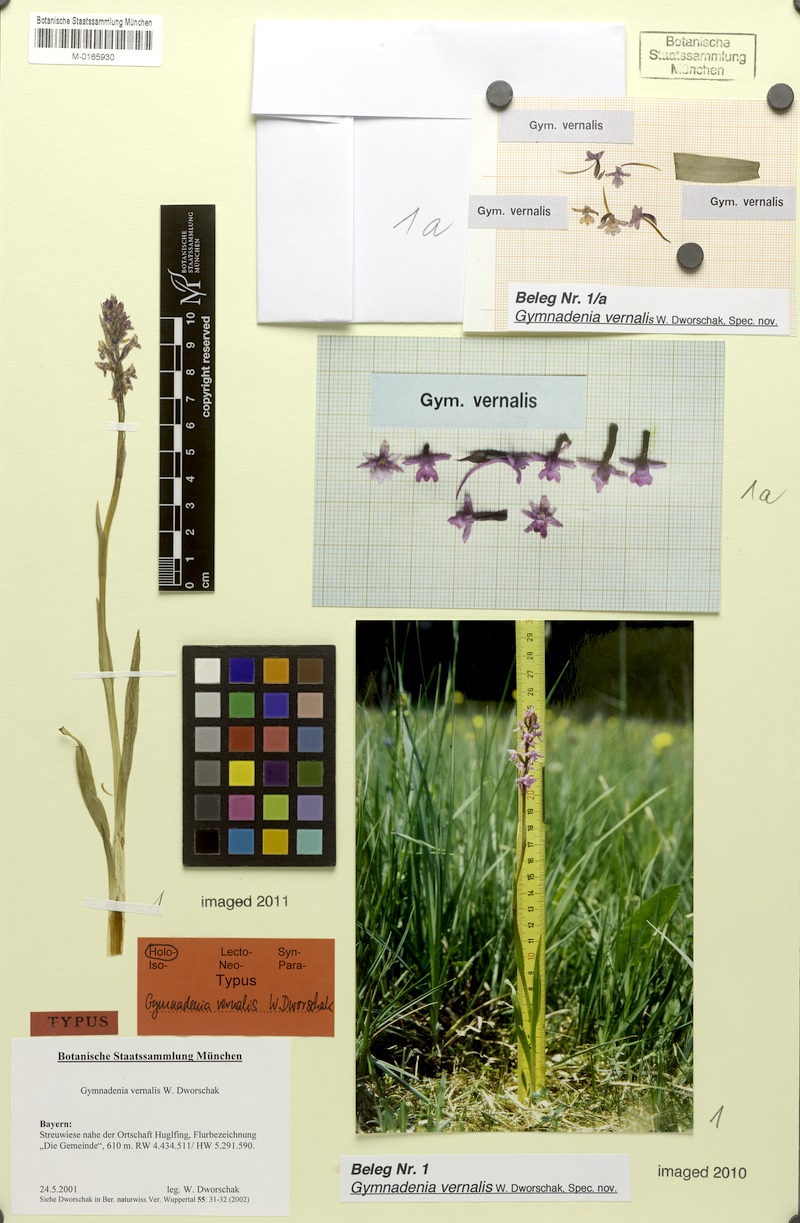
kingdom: Plantae
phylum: Tracheophyta
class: Liliopsida
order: Asparagales
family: Orchidaceae
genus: Gymnadenia
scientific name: Gymnadenia conopsea
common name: Fragrant orchid
